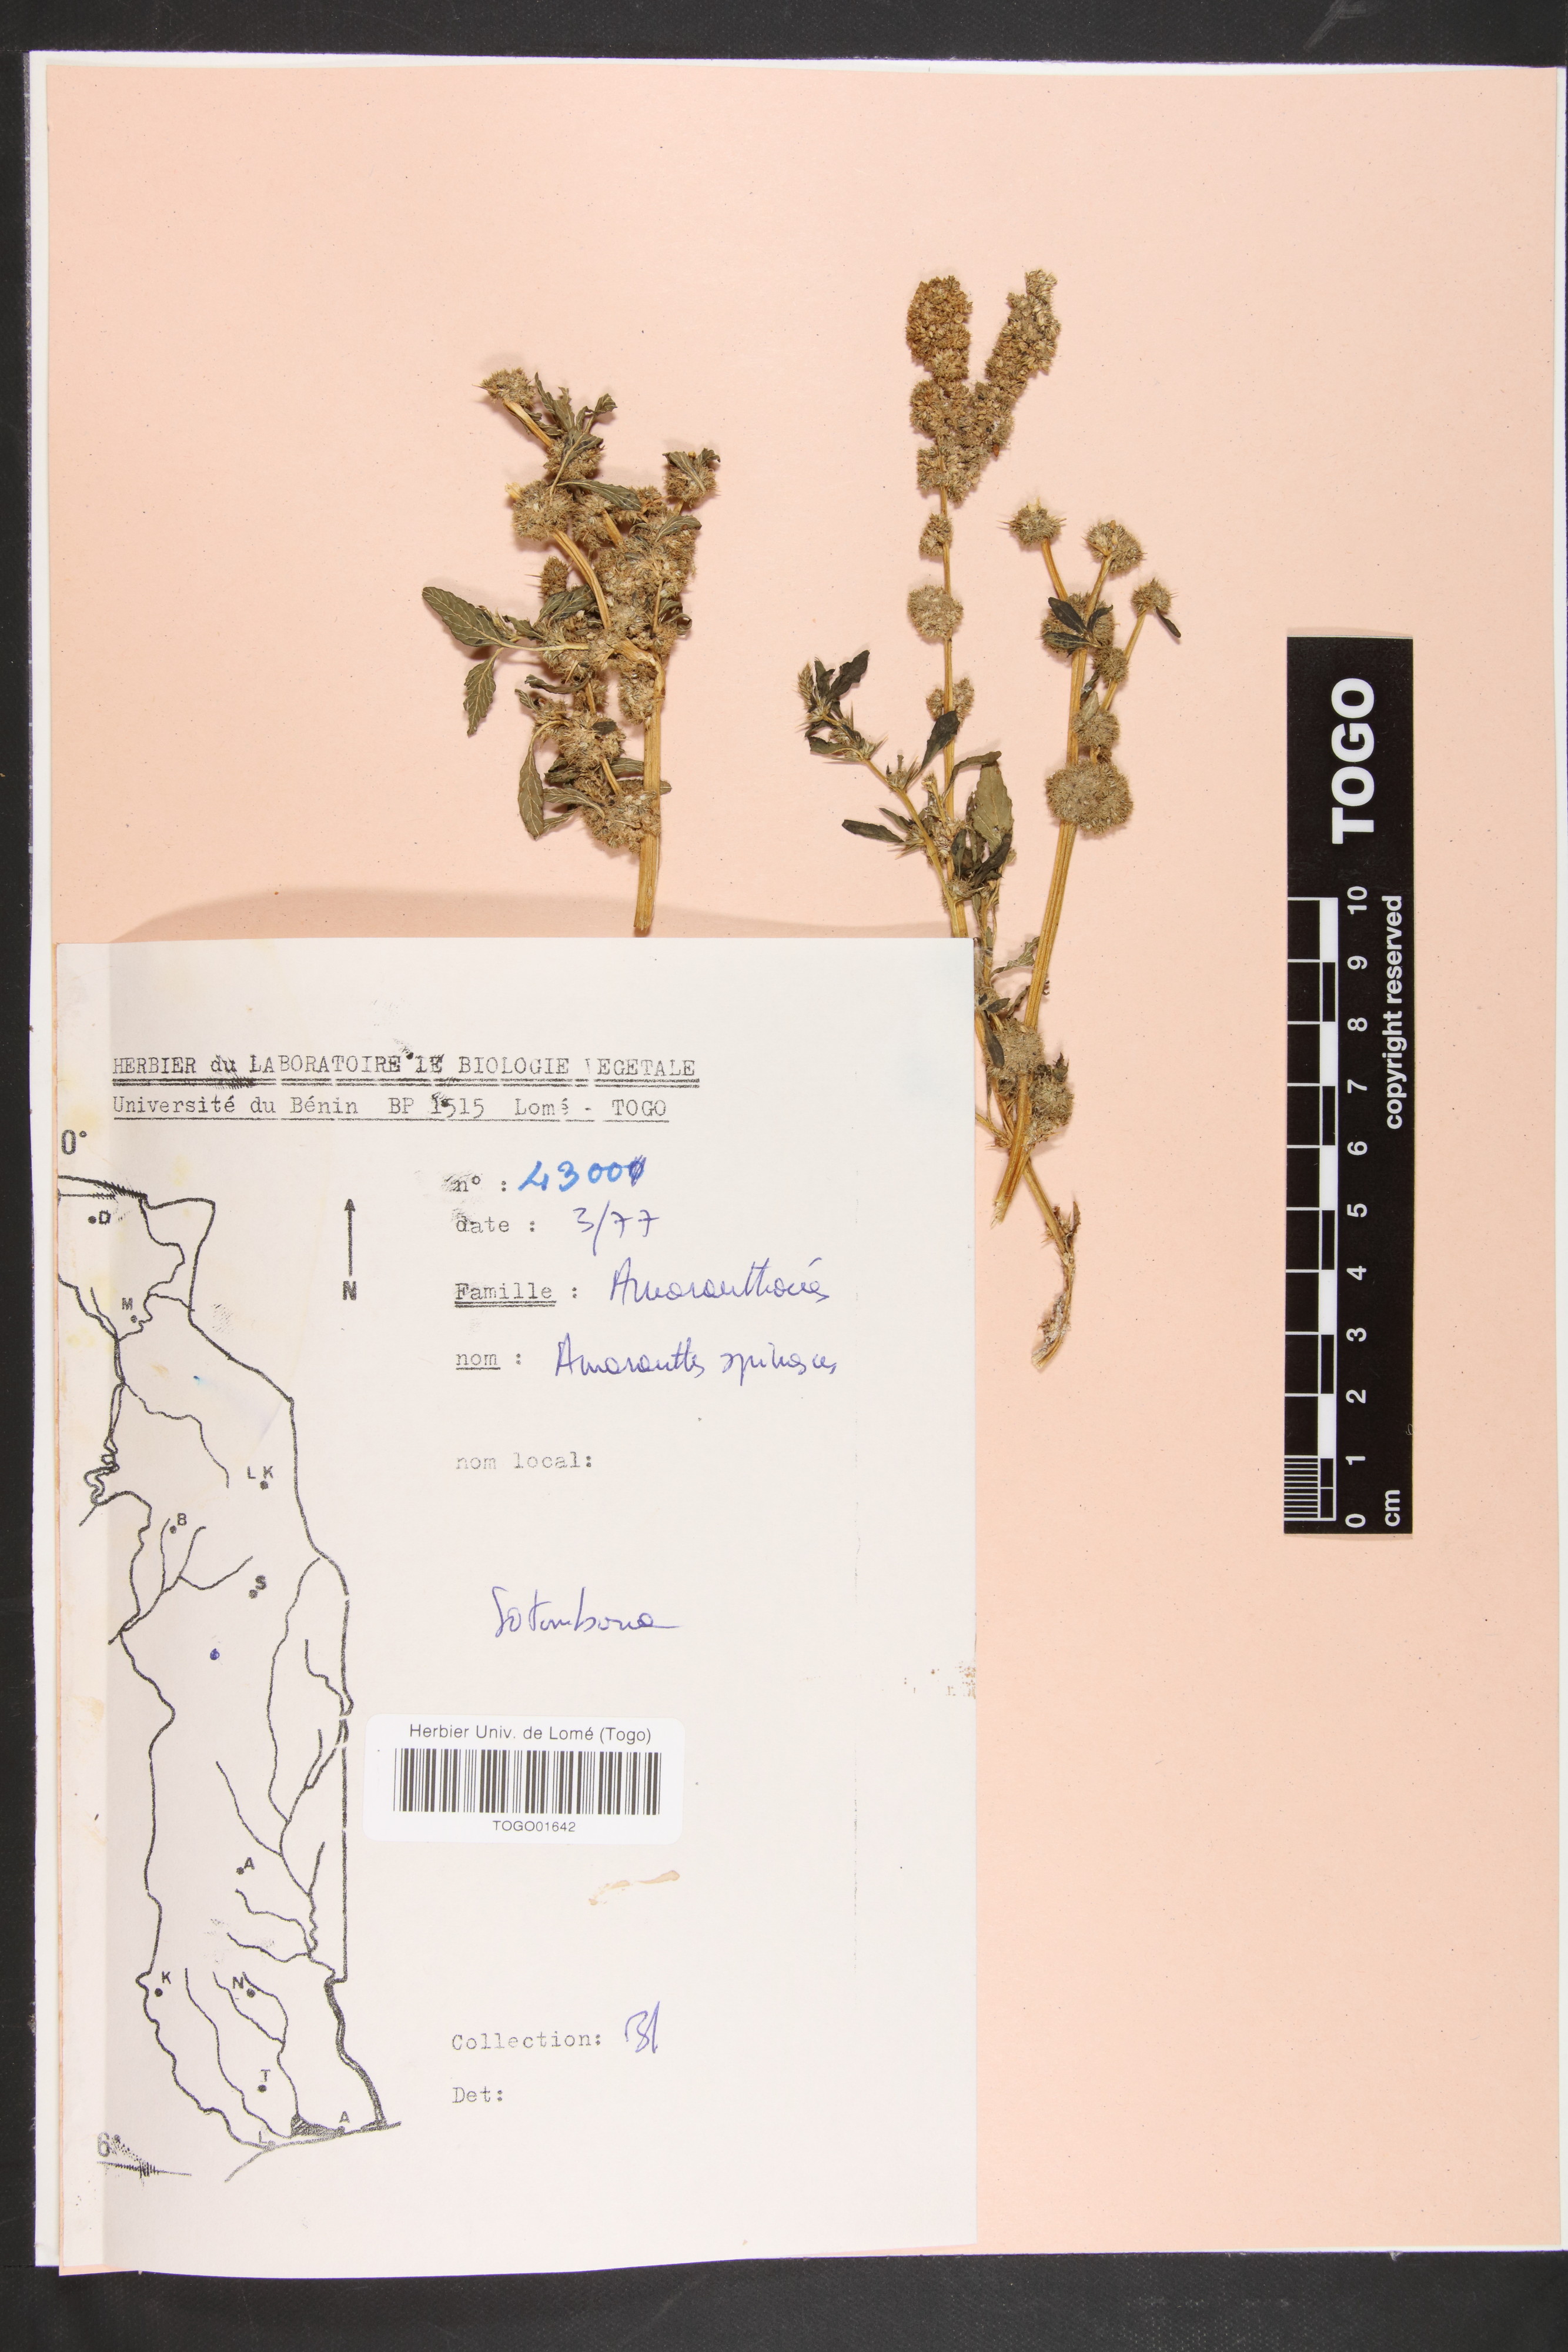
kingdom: Plantae
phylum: Tracheophyta
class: Magnoliopsida
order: Caryophyllales
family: Amaranthaceae
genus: Amaranthus
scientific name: Amaranthus spinosus
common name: Spiny amaranth
